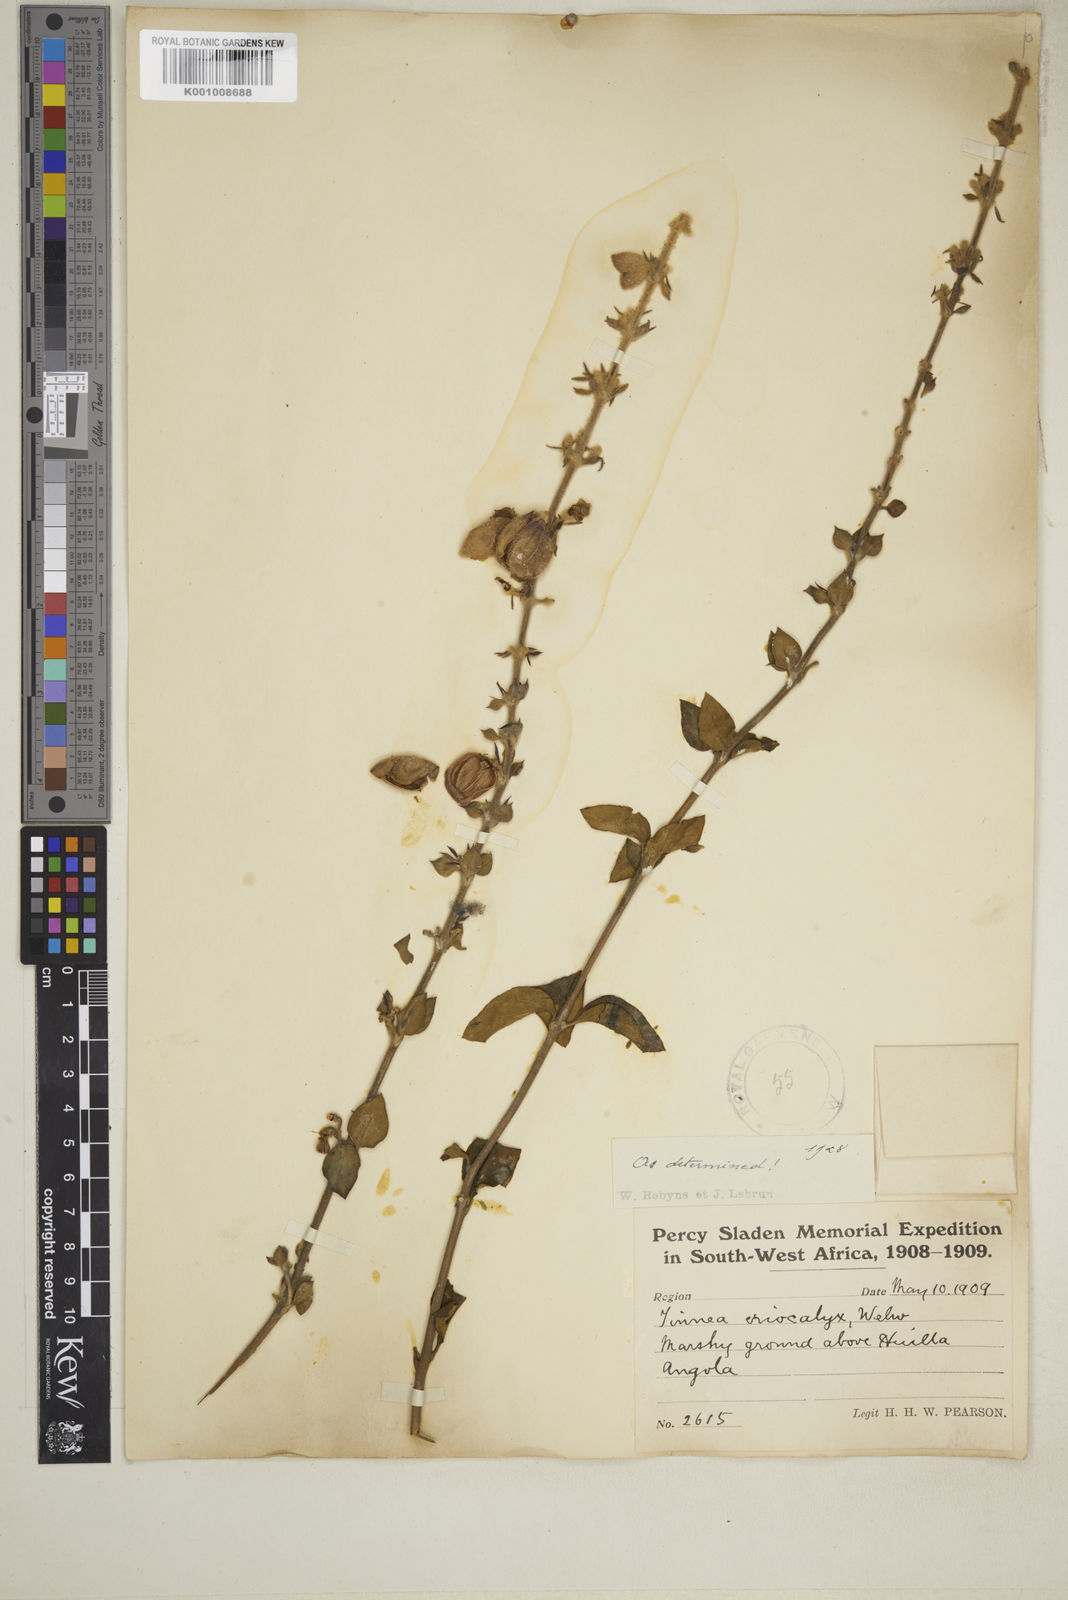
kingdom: Plantae
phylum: Tracheophyta
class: Magnoliopsida
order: Lamiales
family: Lamiaceae
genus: Tinnea
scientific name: Tinnea eriocalyx
